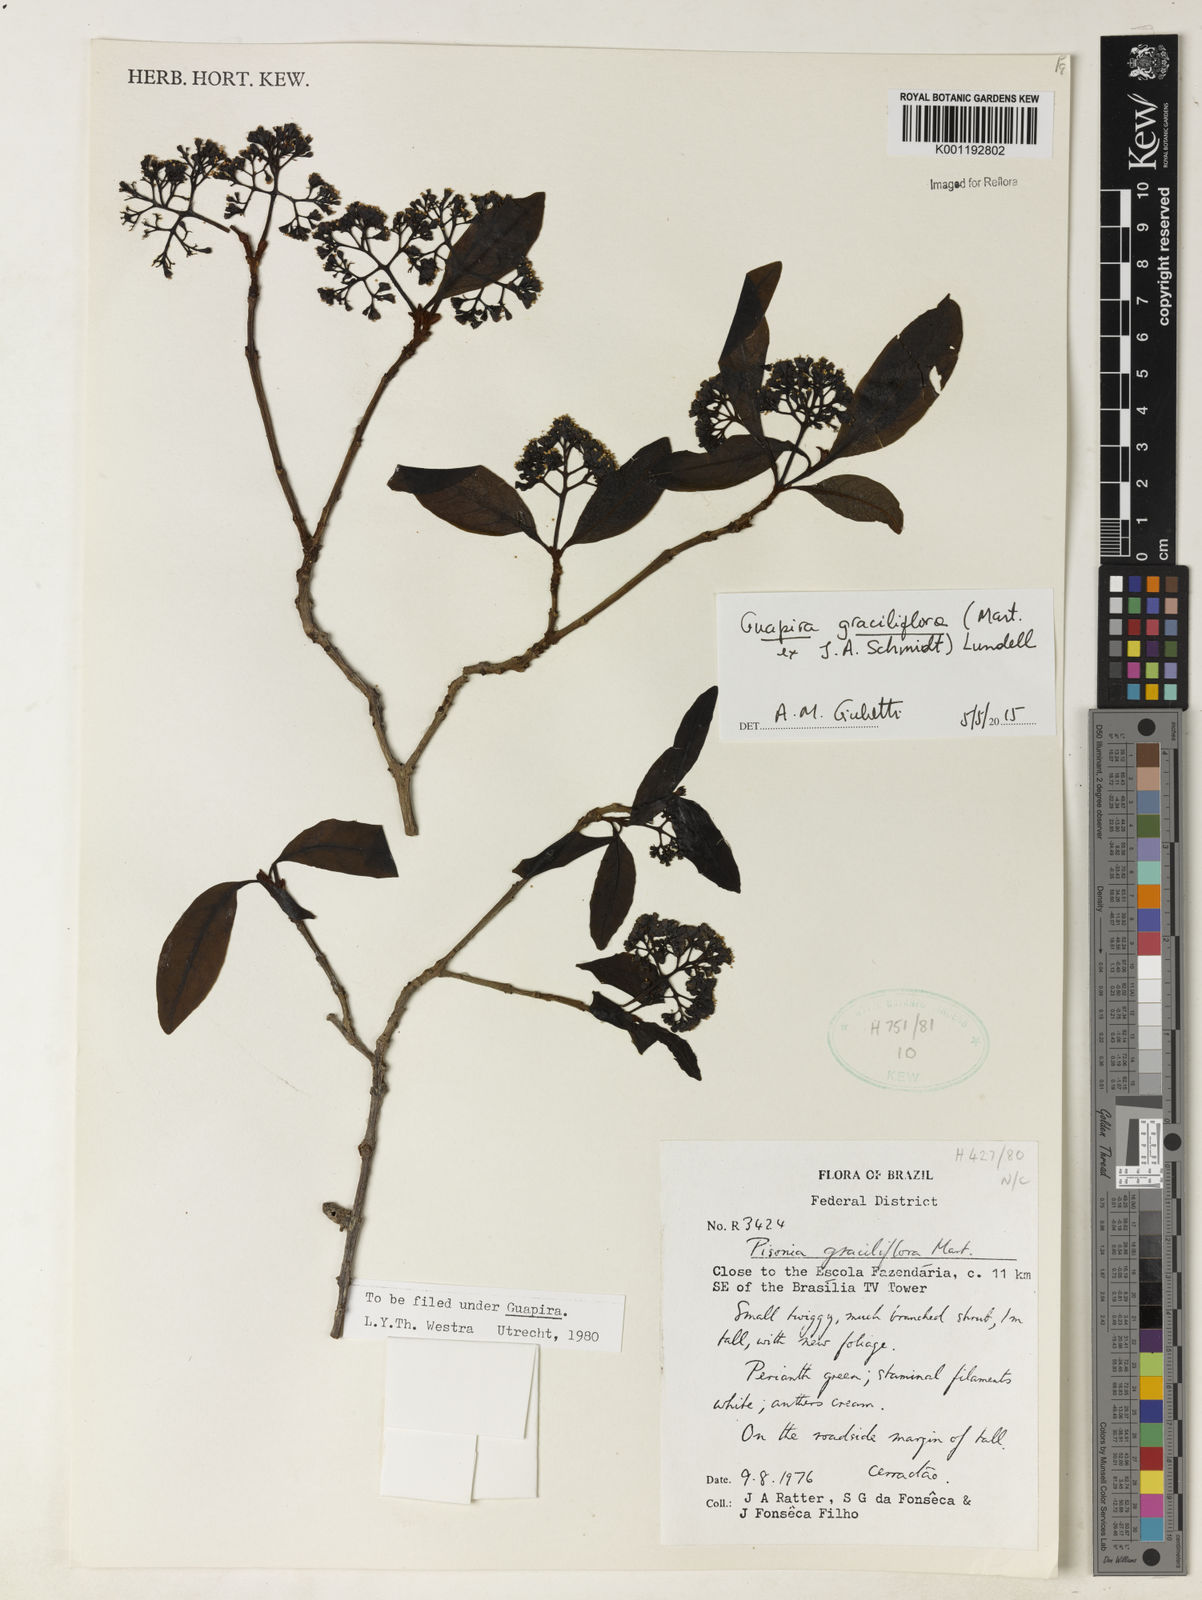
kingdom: Plantae
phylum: Tracheophyta
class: Magnoliopsida
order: Caryophyllales
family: Nyctaginaceae
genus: Guapira
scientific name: Guapira graciliflora
